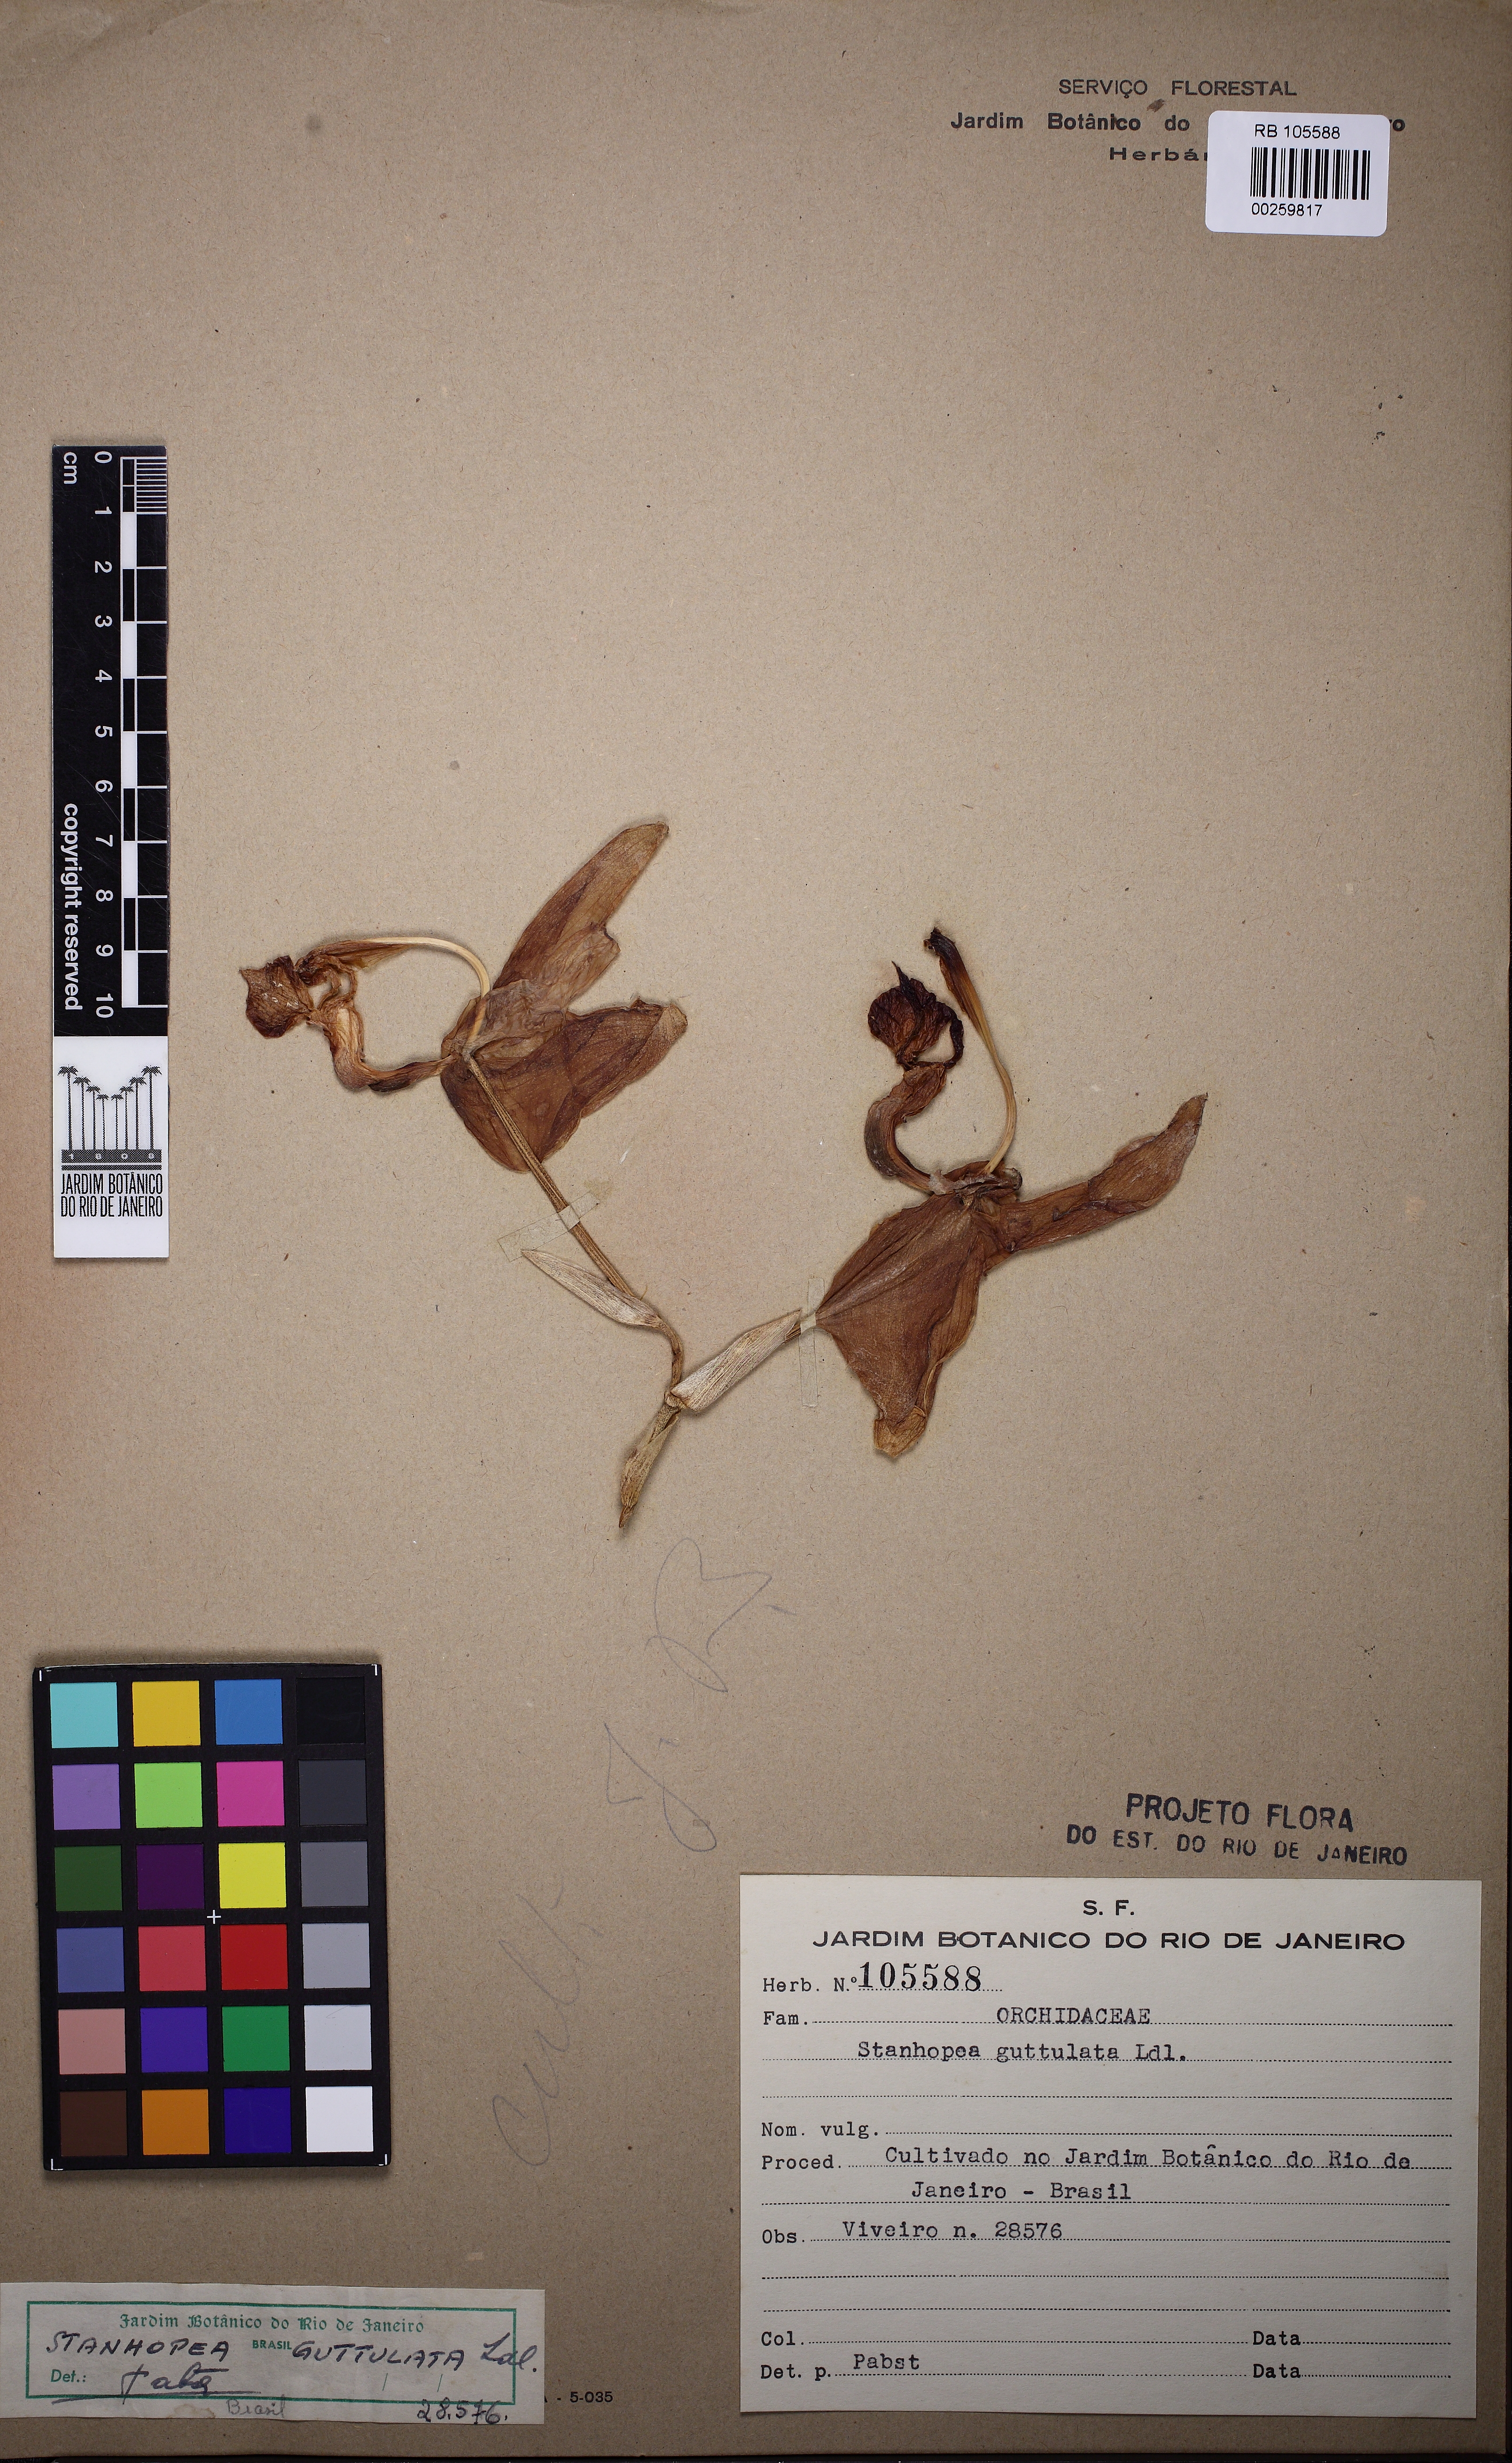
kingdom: Plantae
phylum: Tracheophyta
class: Liliopsida
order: Asparagales
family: Orchidaceae
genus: Stanhopea
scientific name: Stanhopea guttulata
